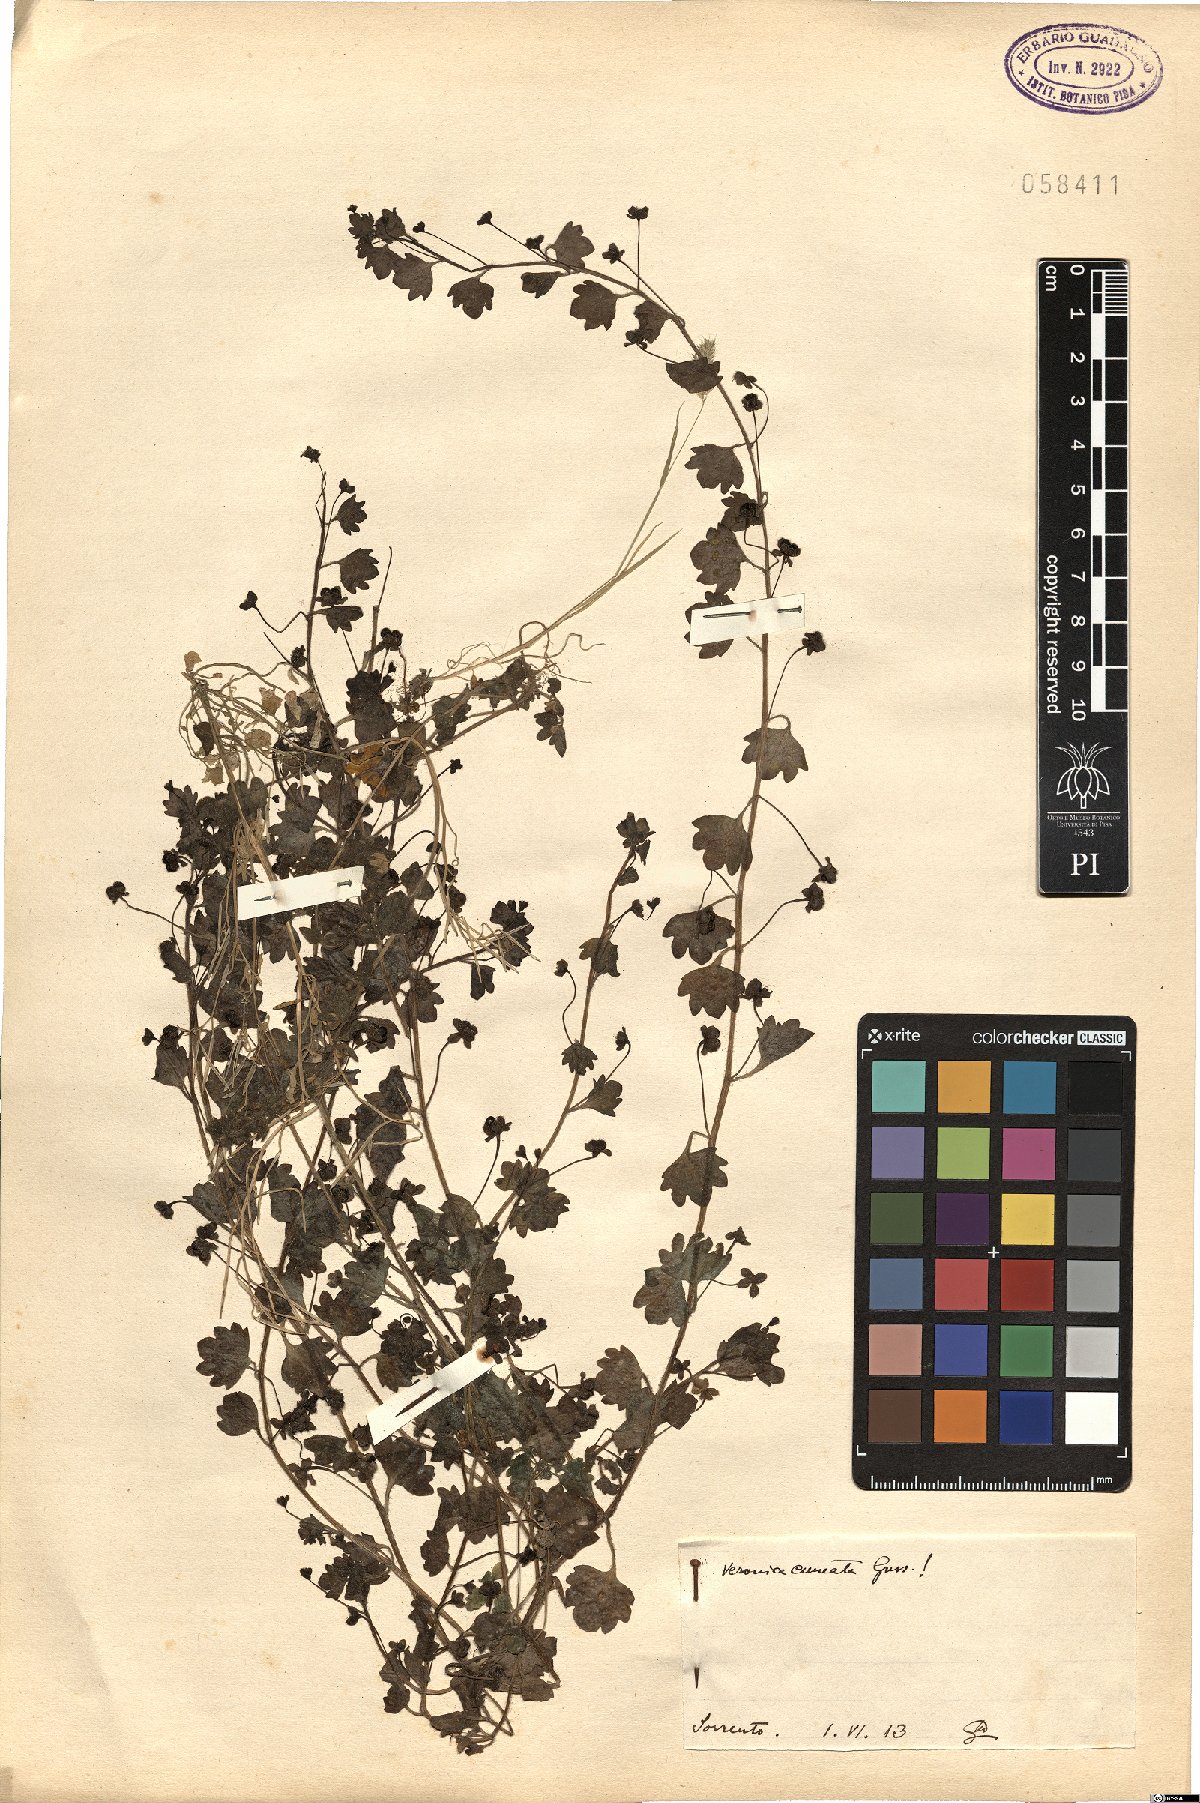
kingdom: Plantae
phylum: Tracheophyta
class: Magnoliopsida
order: Lamiales
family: Plantaginaceae
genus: Veronica
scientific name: Veronica cymbalaria
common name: Pale speedwell
